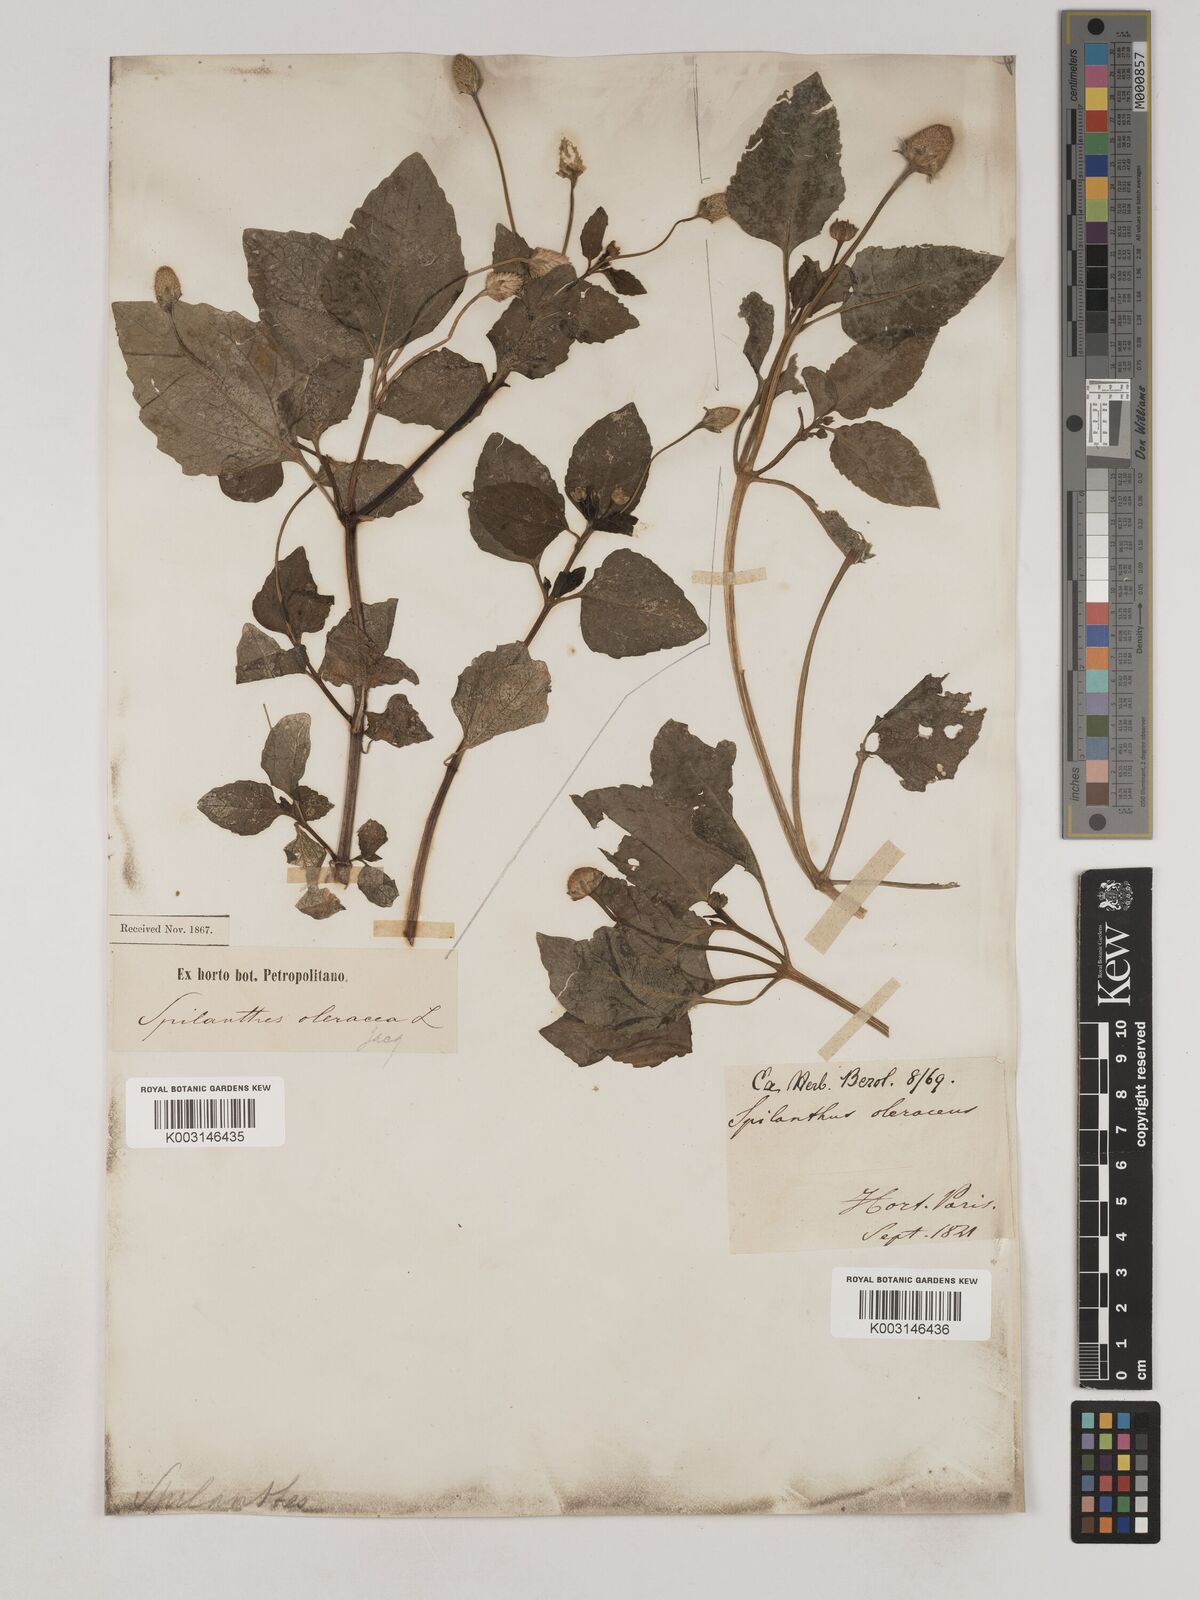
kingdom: Plantae
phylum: Tracheophyta
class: Magnoliopsida
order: Asterales
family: Asteraceae
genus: Acmella
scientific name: Acmella oleracea
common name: Brazilian cress
